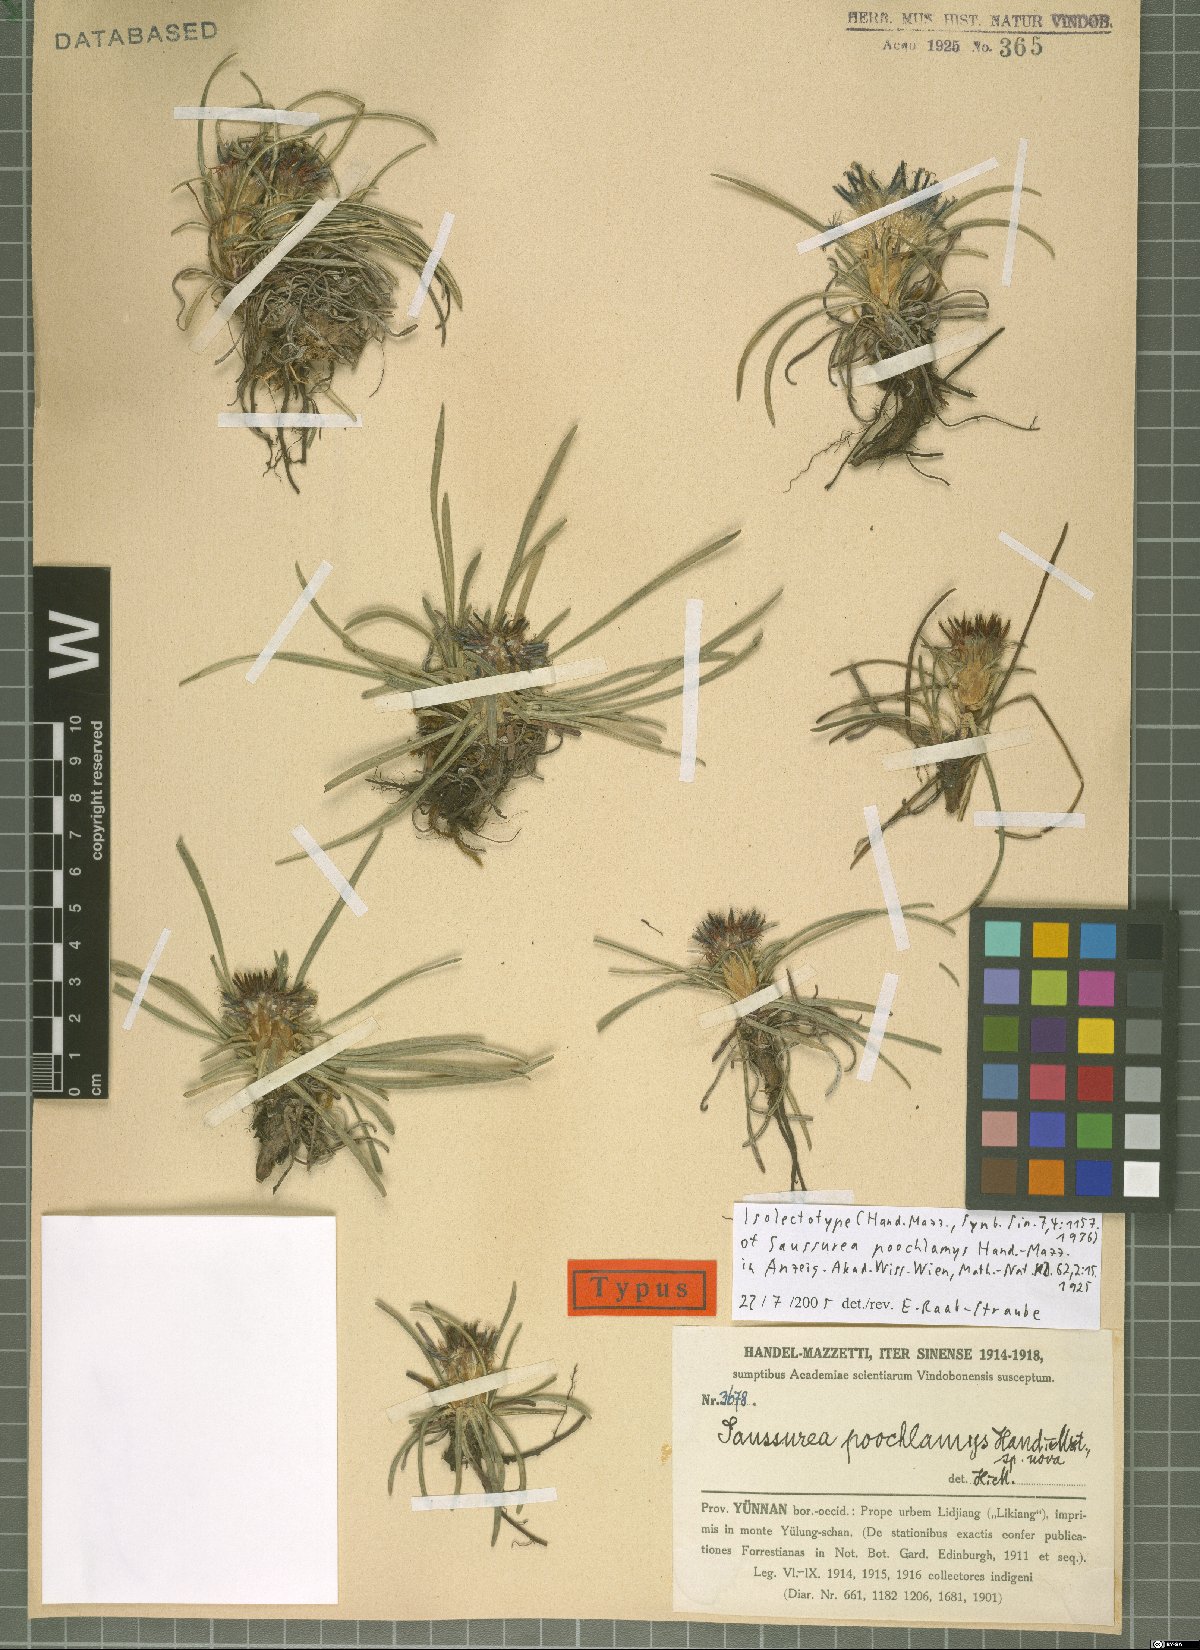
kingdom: Plantae
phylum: Tracheophyta
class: Magnoliopsida
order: Asterales
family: Asteraceae
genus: Saussurea
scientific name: Saussurea poochlamys
